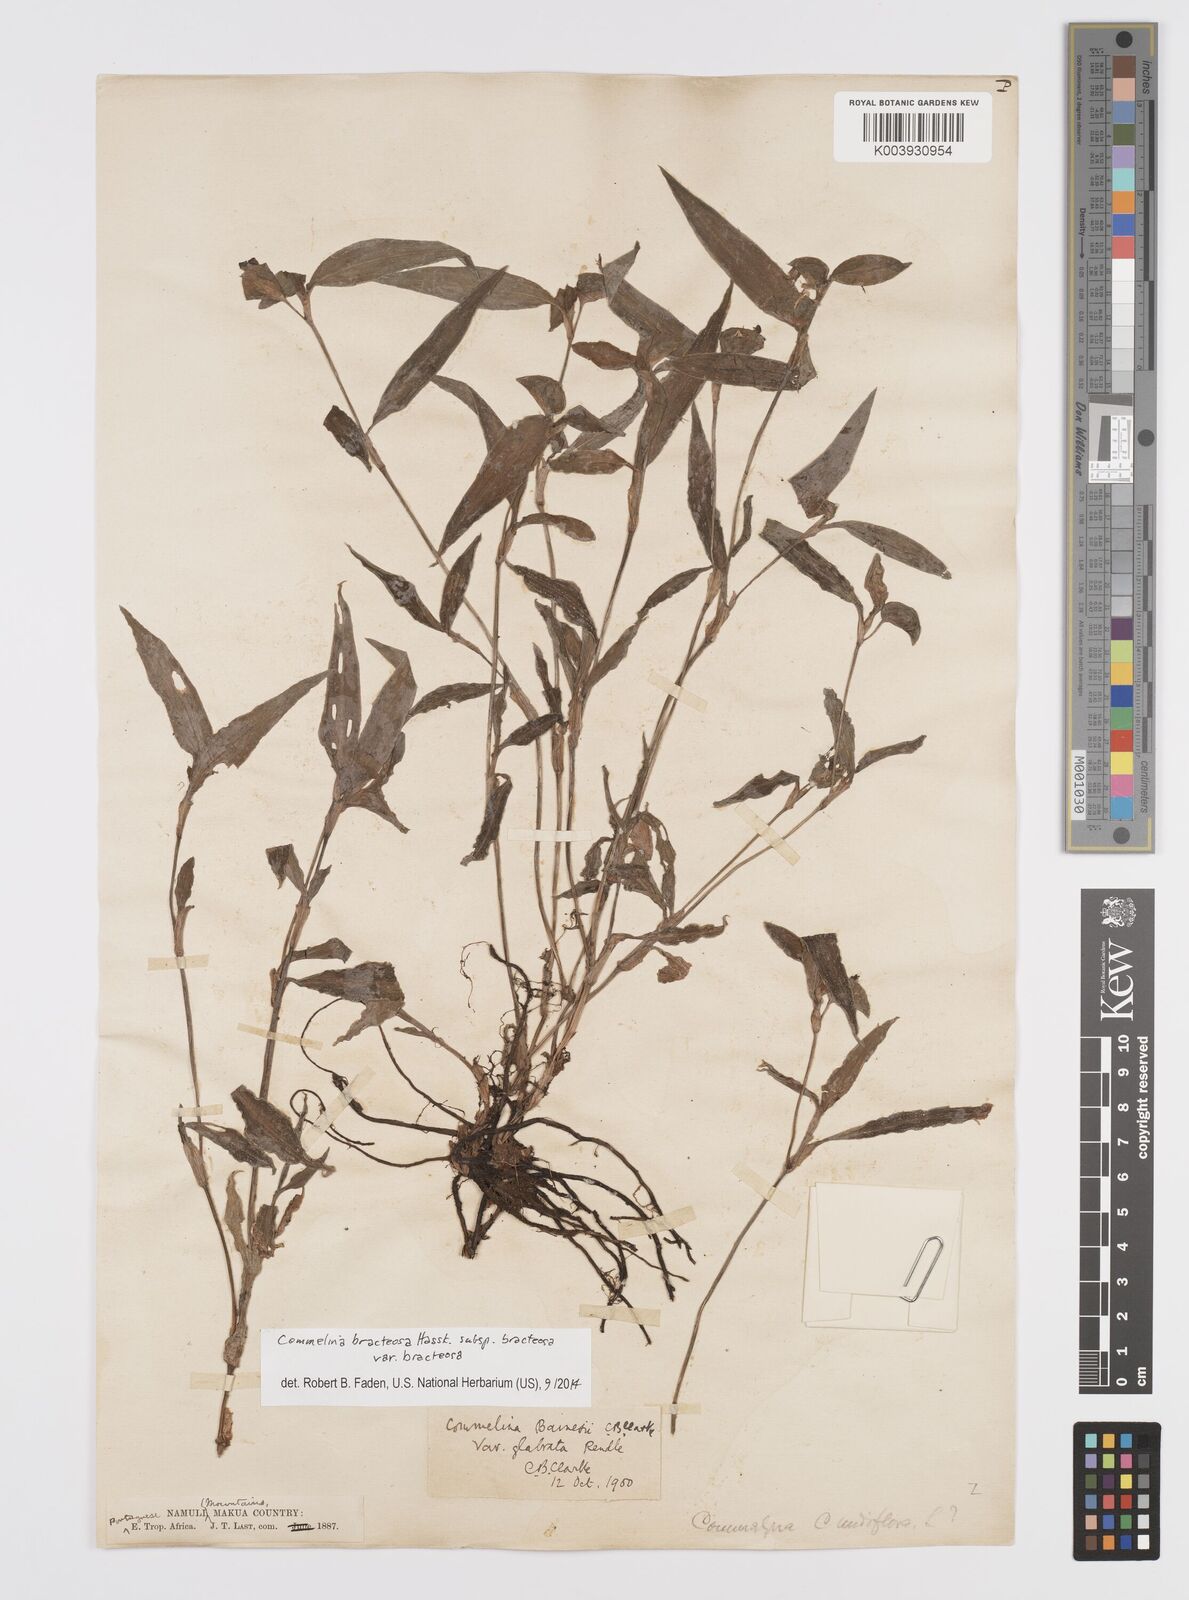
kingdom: Plantae
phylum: Tracheophyta
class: Liliopsida
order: Commelinales
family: Commelinaceae
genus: Commelina
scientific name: Commelina bracteosa
